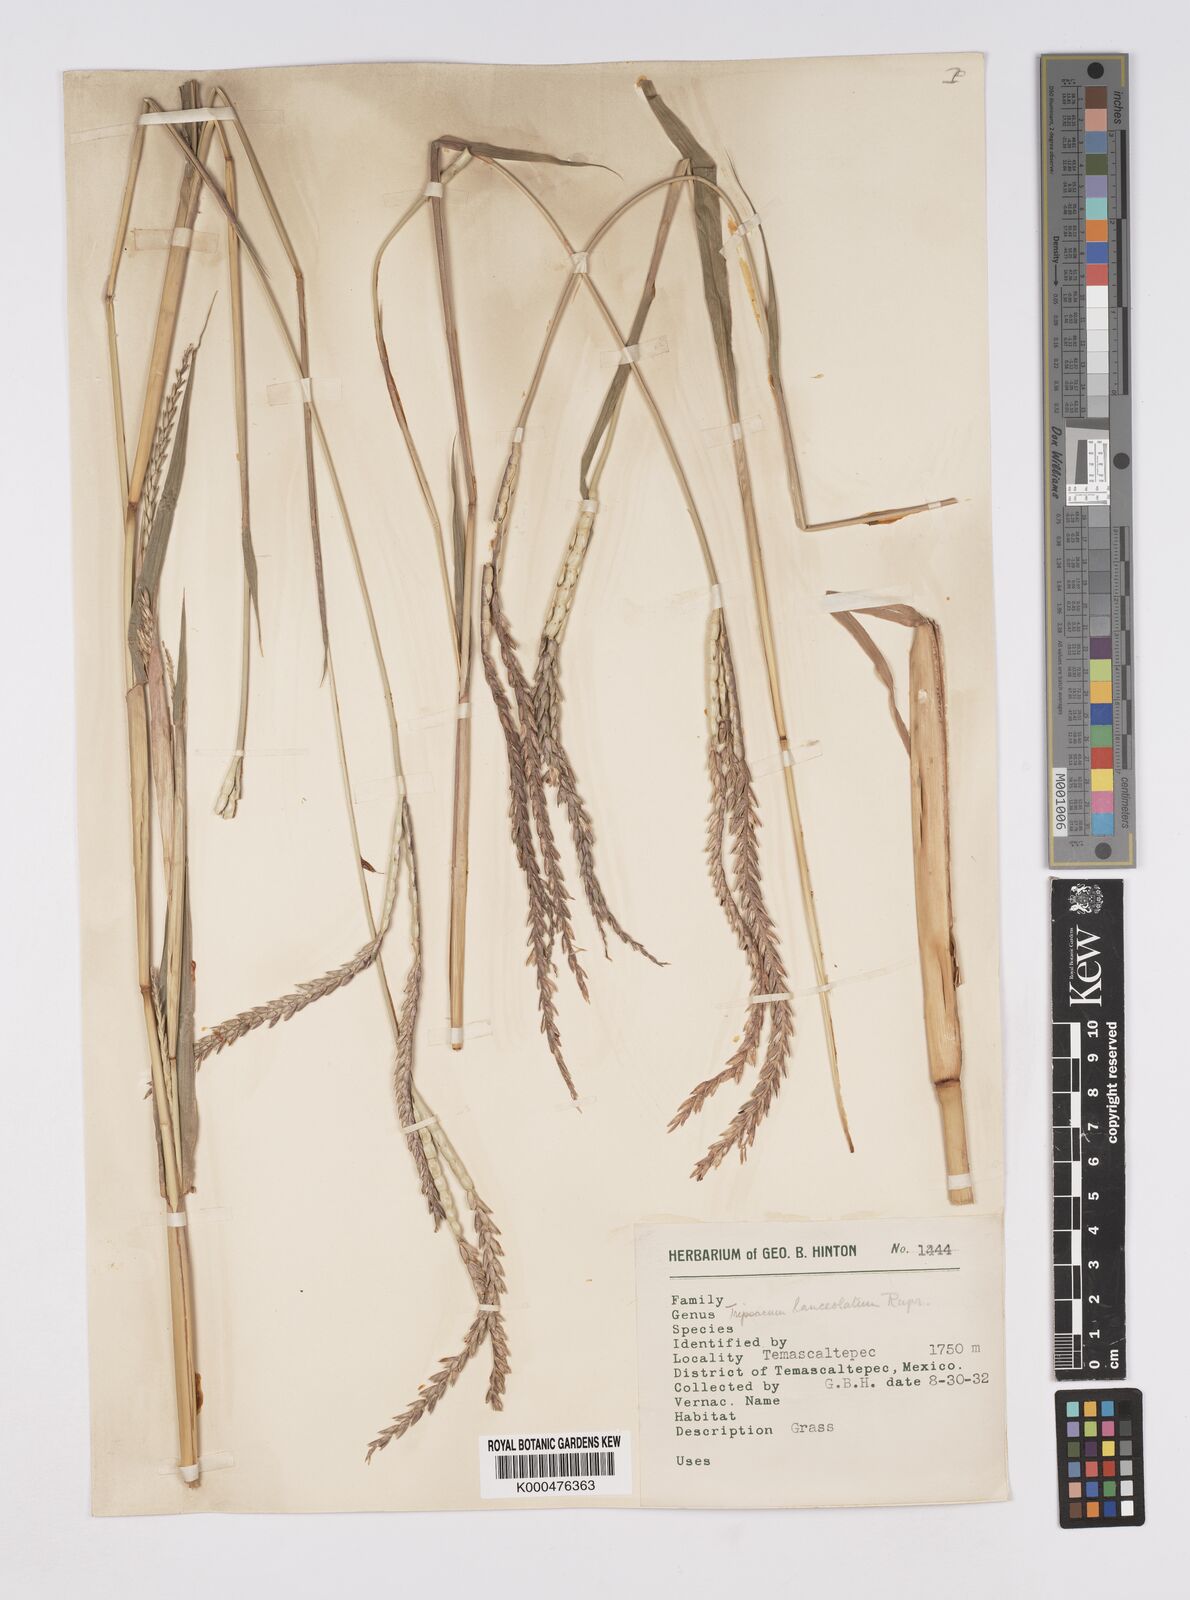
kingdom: Plantae
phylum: Tracheophyta
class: Liliopsida
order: Poales
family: Poaceae
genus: Tripsacum
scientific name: Tripsacum dactyloides
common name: Buffalo-grass
